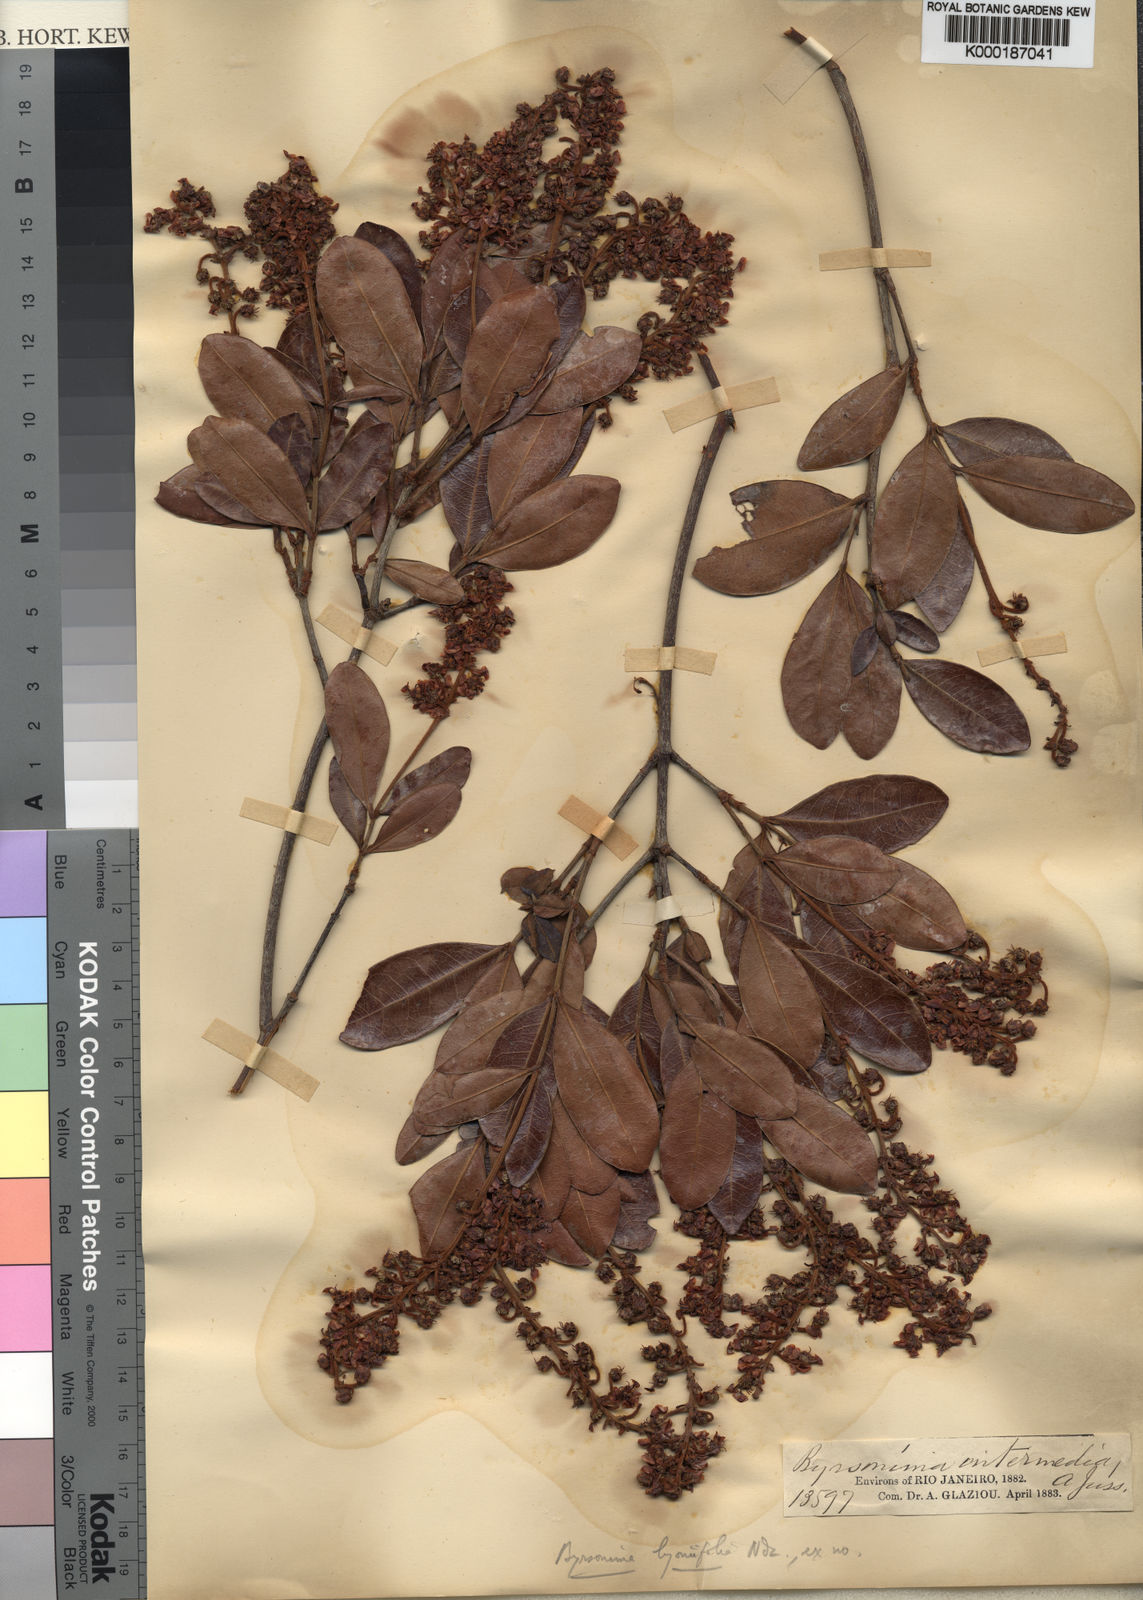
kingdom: Plantae
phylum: Tracheophyta
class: Magnoliopsida
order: Malpighiales
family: Malpighiaceae
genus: Byrsonima
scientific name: Byrsonima lyoniifolia
